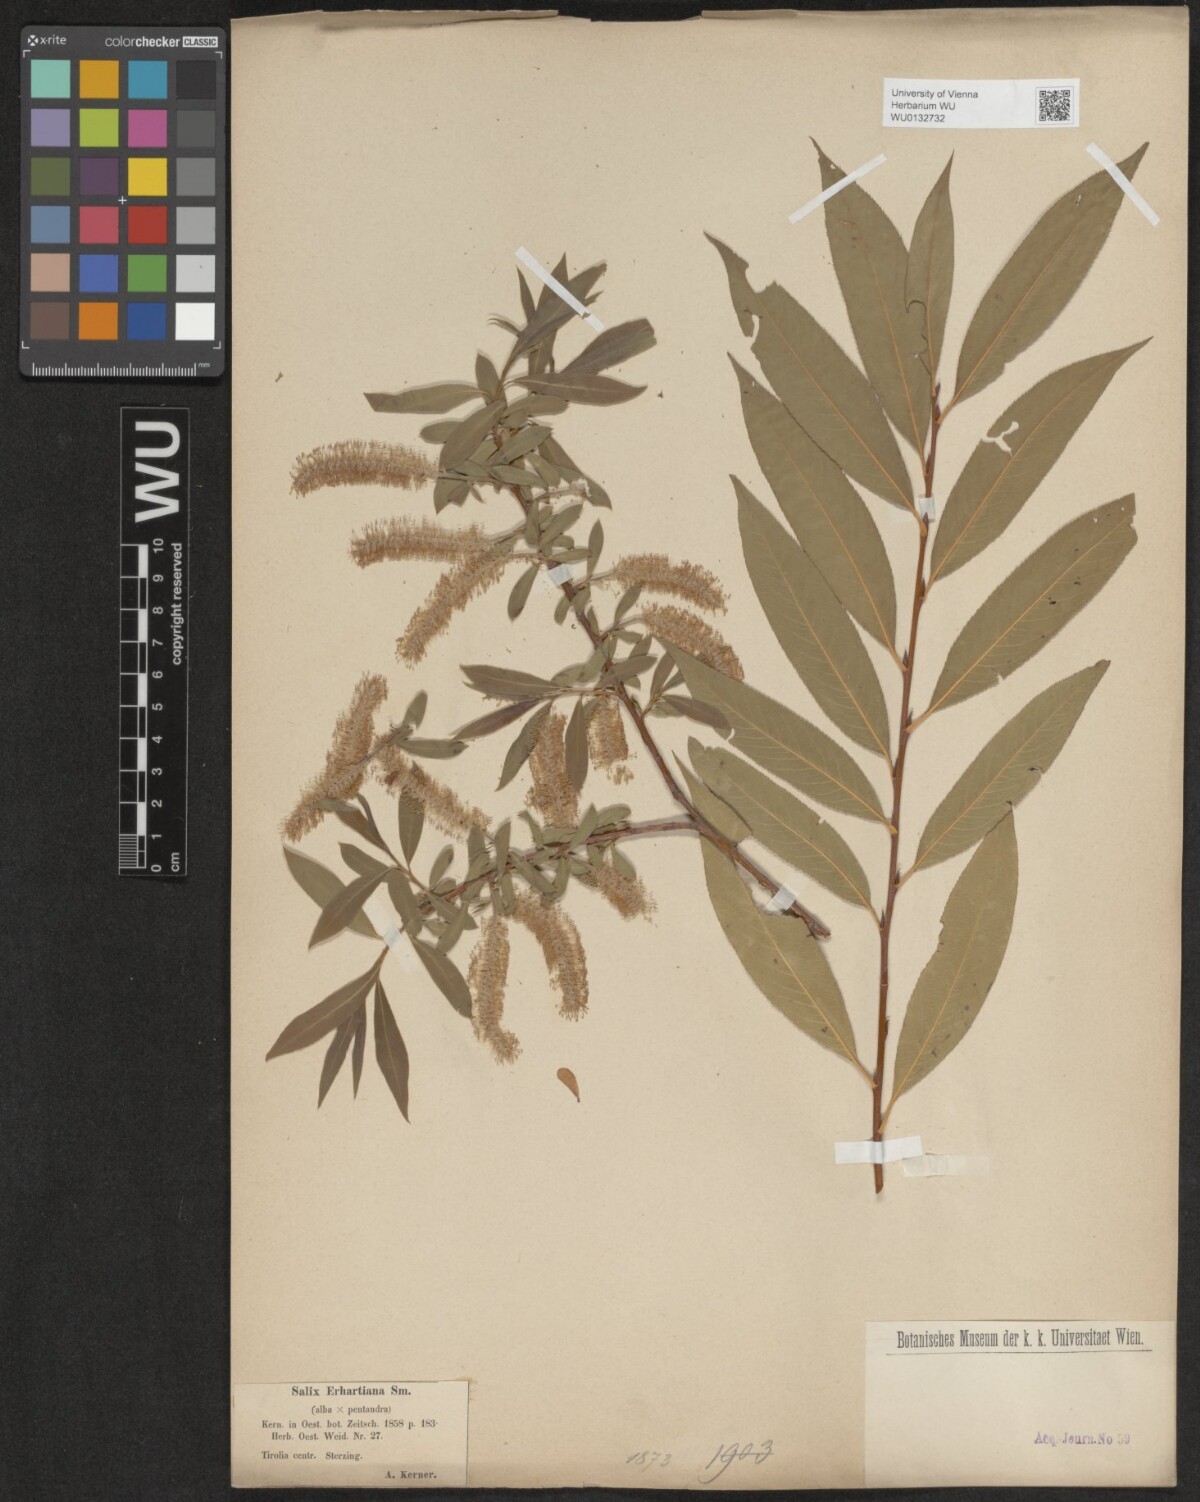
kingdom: Plantae
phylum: Tracheophyta
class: Magnoliopsida
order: Malpighiales
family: Salicaceae
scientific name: Salicaceae
